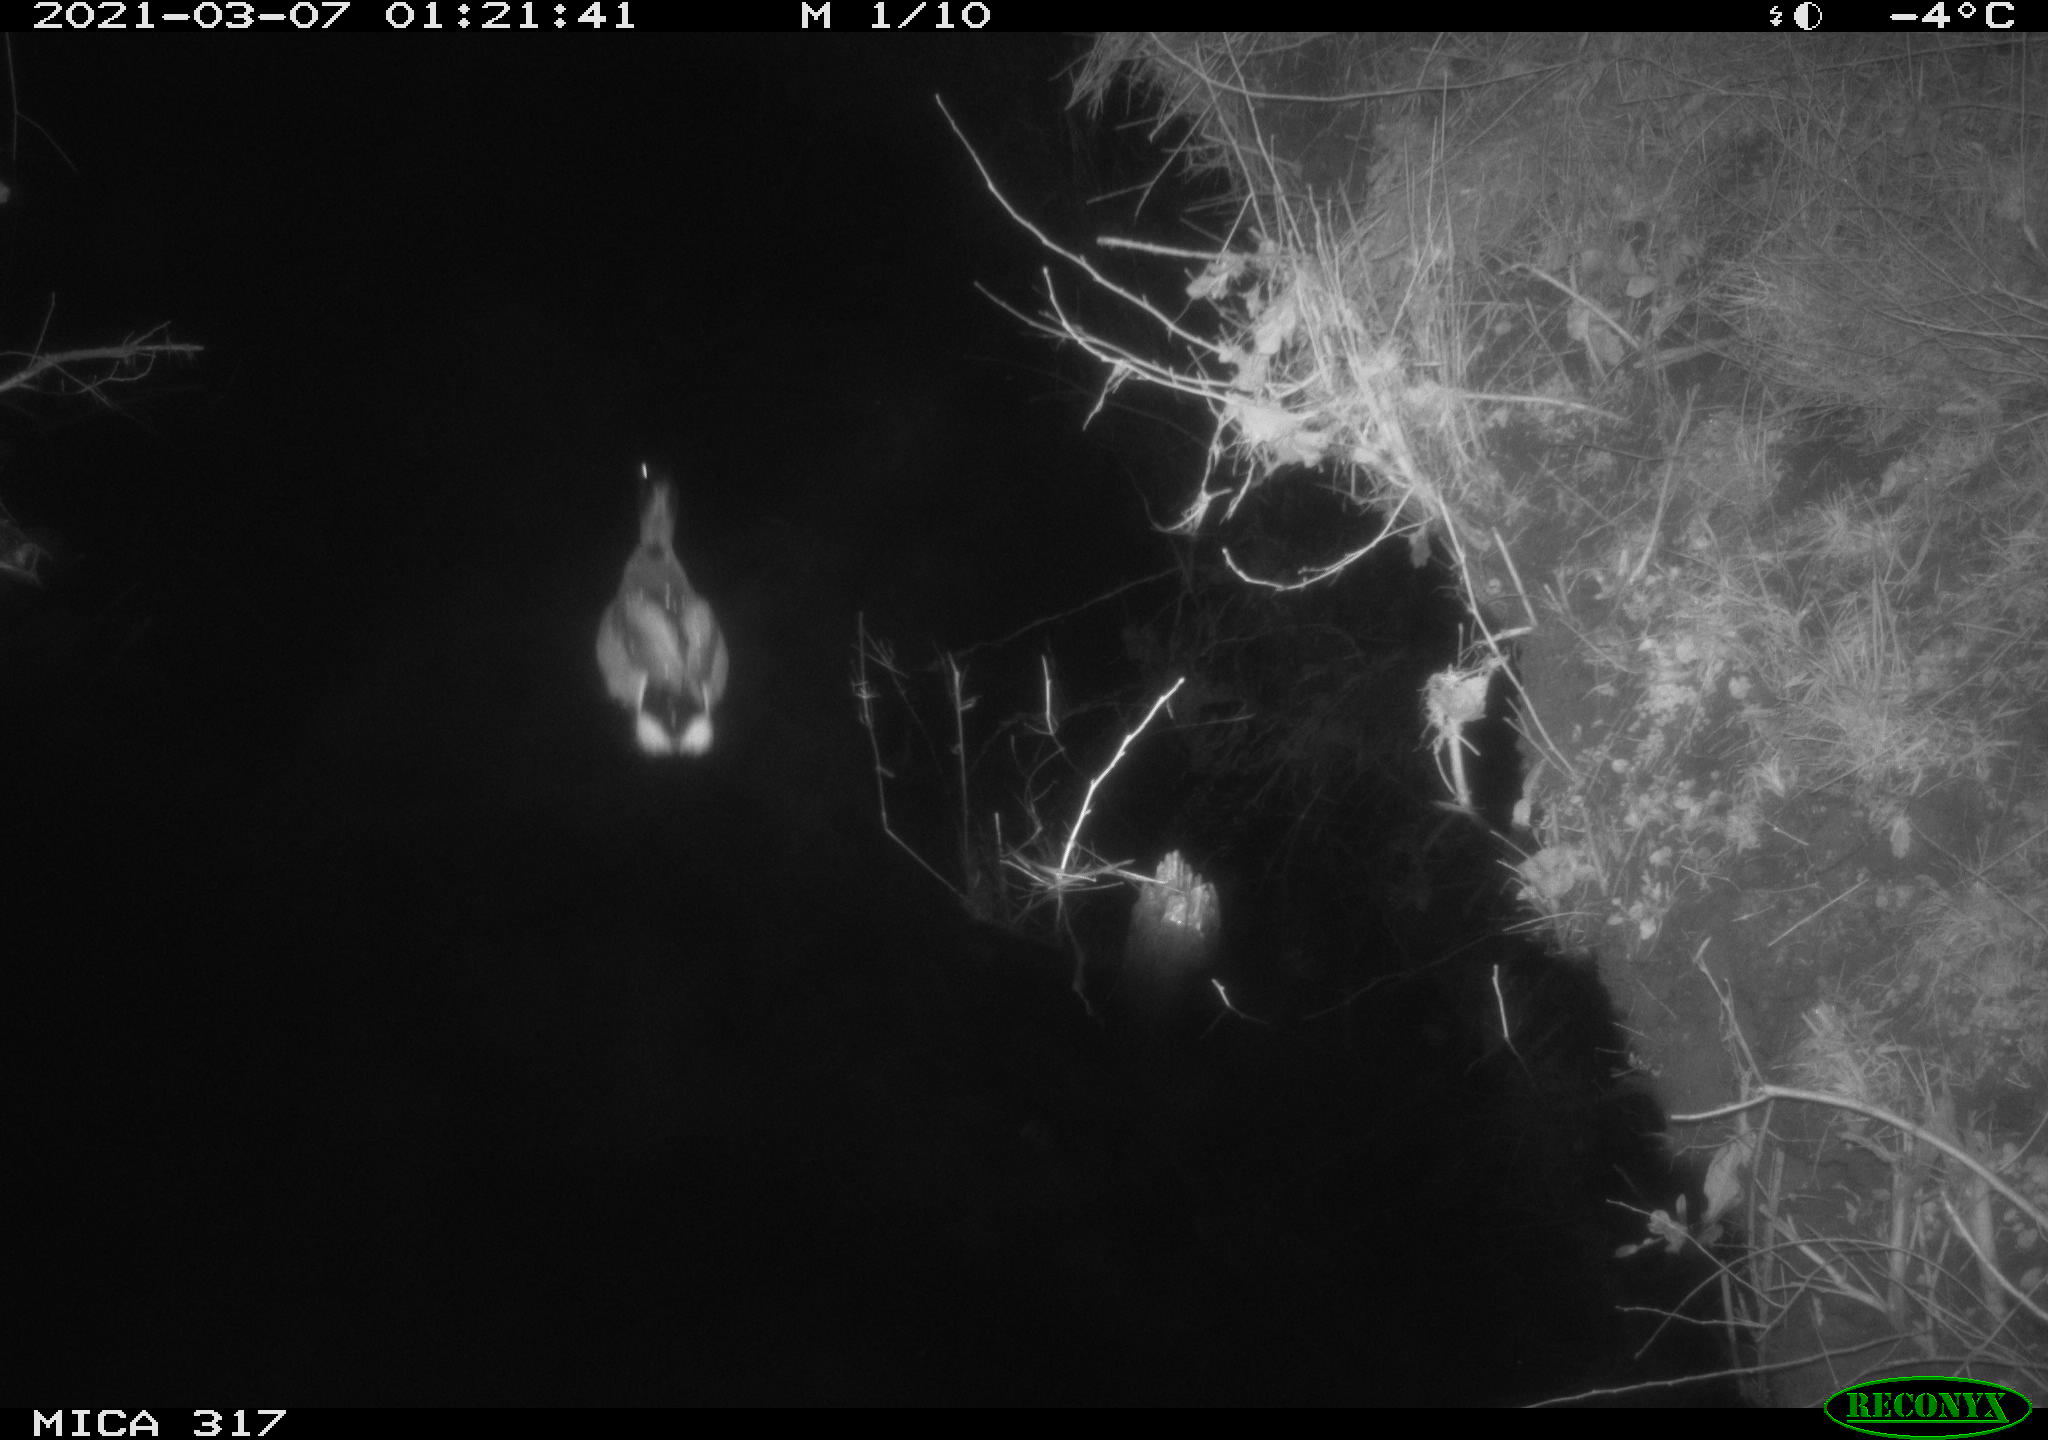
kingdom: Animalia
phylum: Chordata
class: Aves
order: Anseriformes
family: Anatidae
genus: Anas
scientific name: Anas platyrhynchos
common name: Mallard
